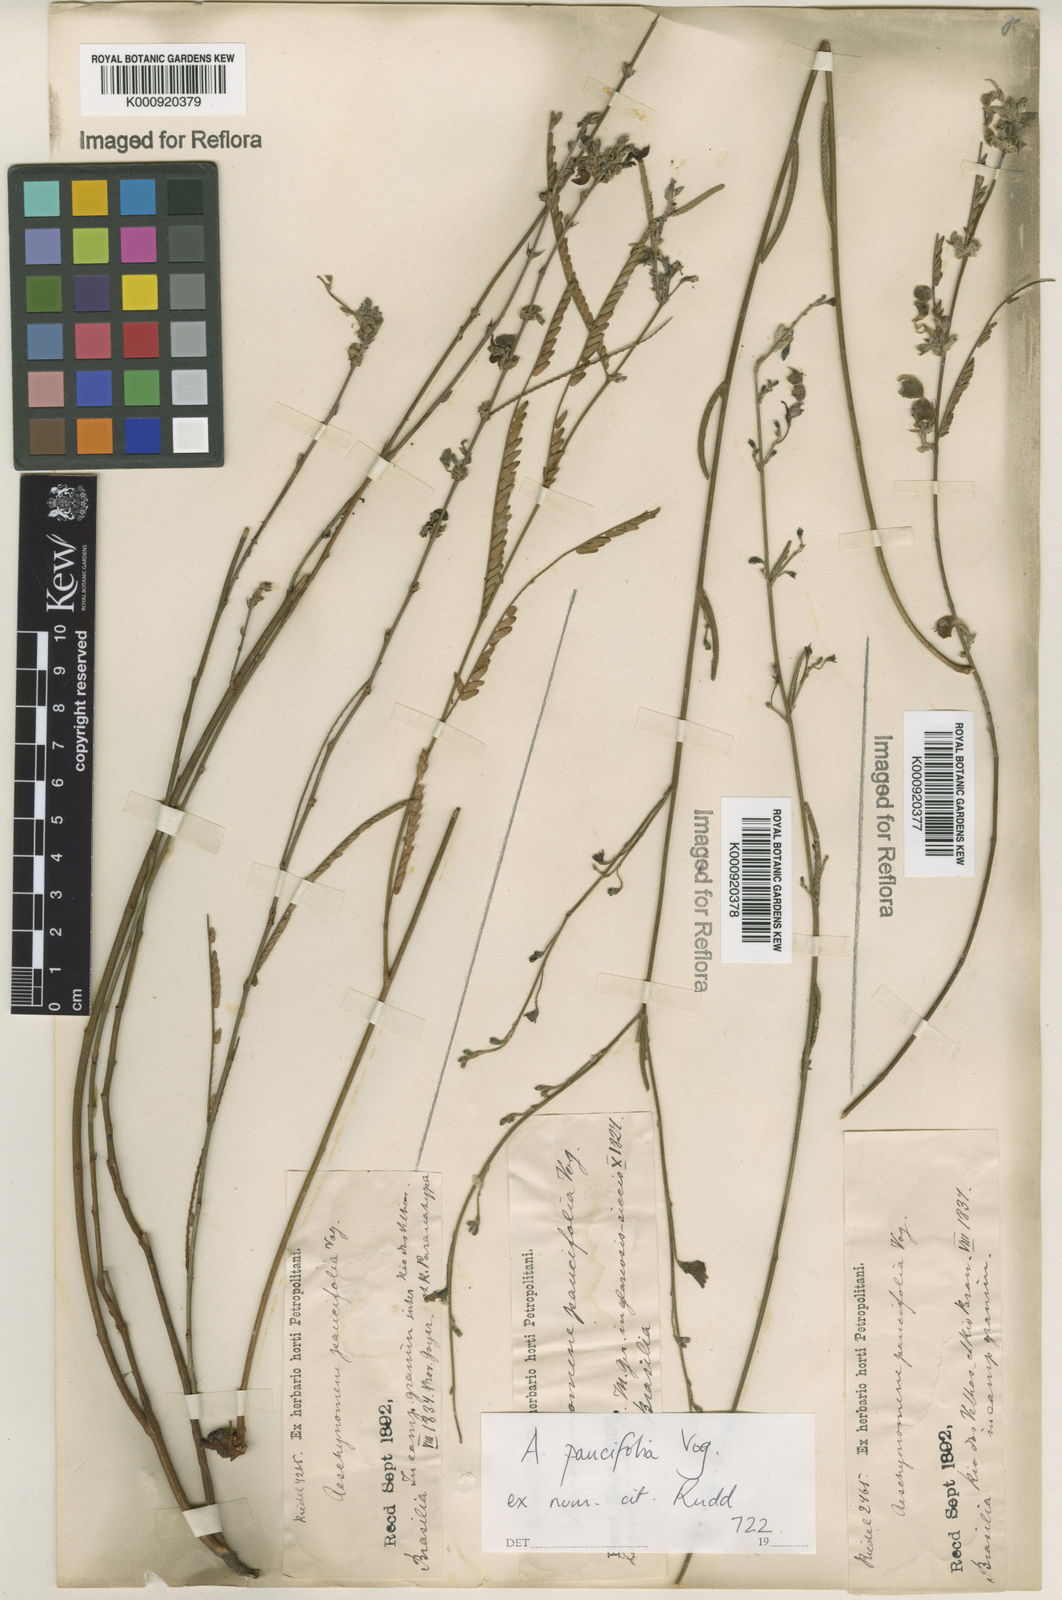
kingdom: Plantae
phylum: Tracheophyta
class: Magnoliopsida
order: Fabales
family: Fabaceae
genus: Ctenodon
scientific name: Ctenodon paucifolius
